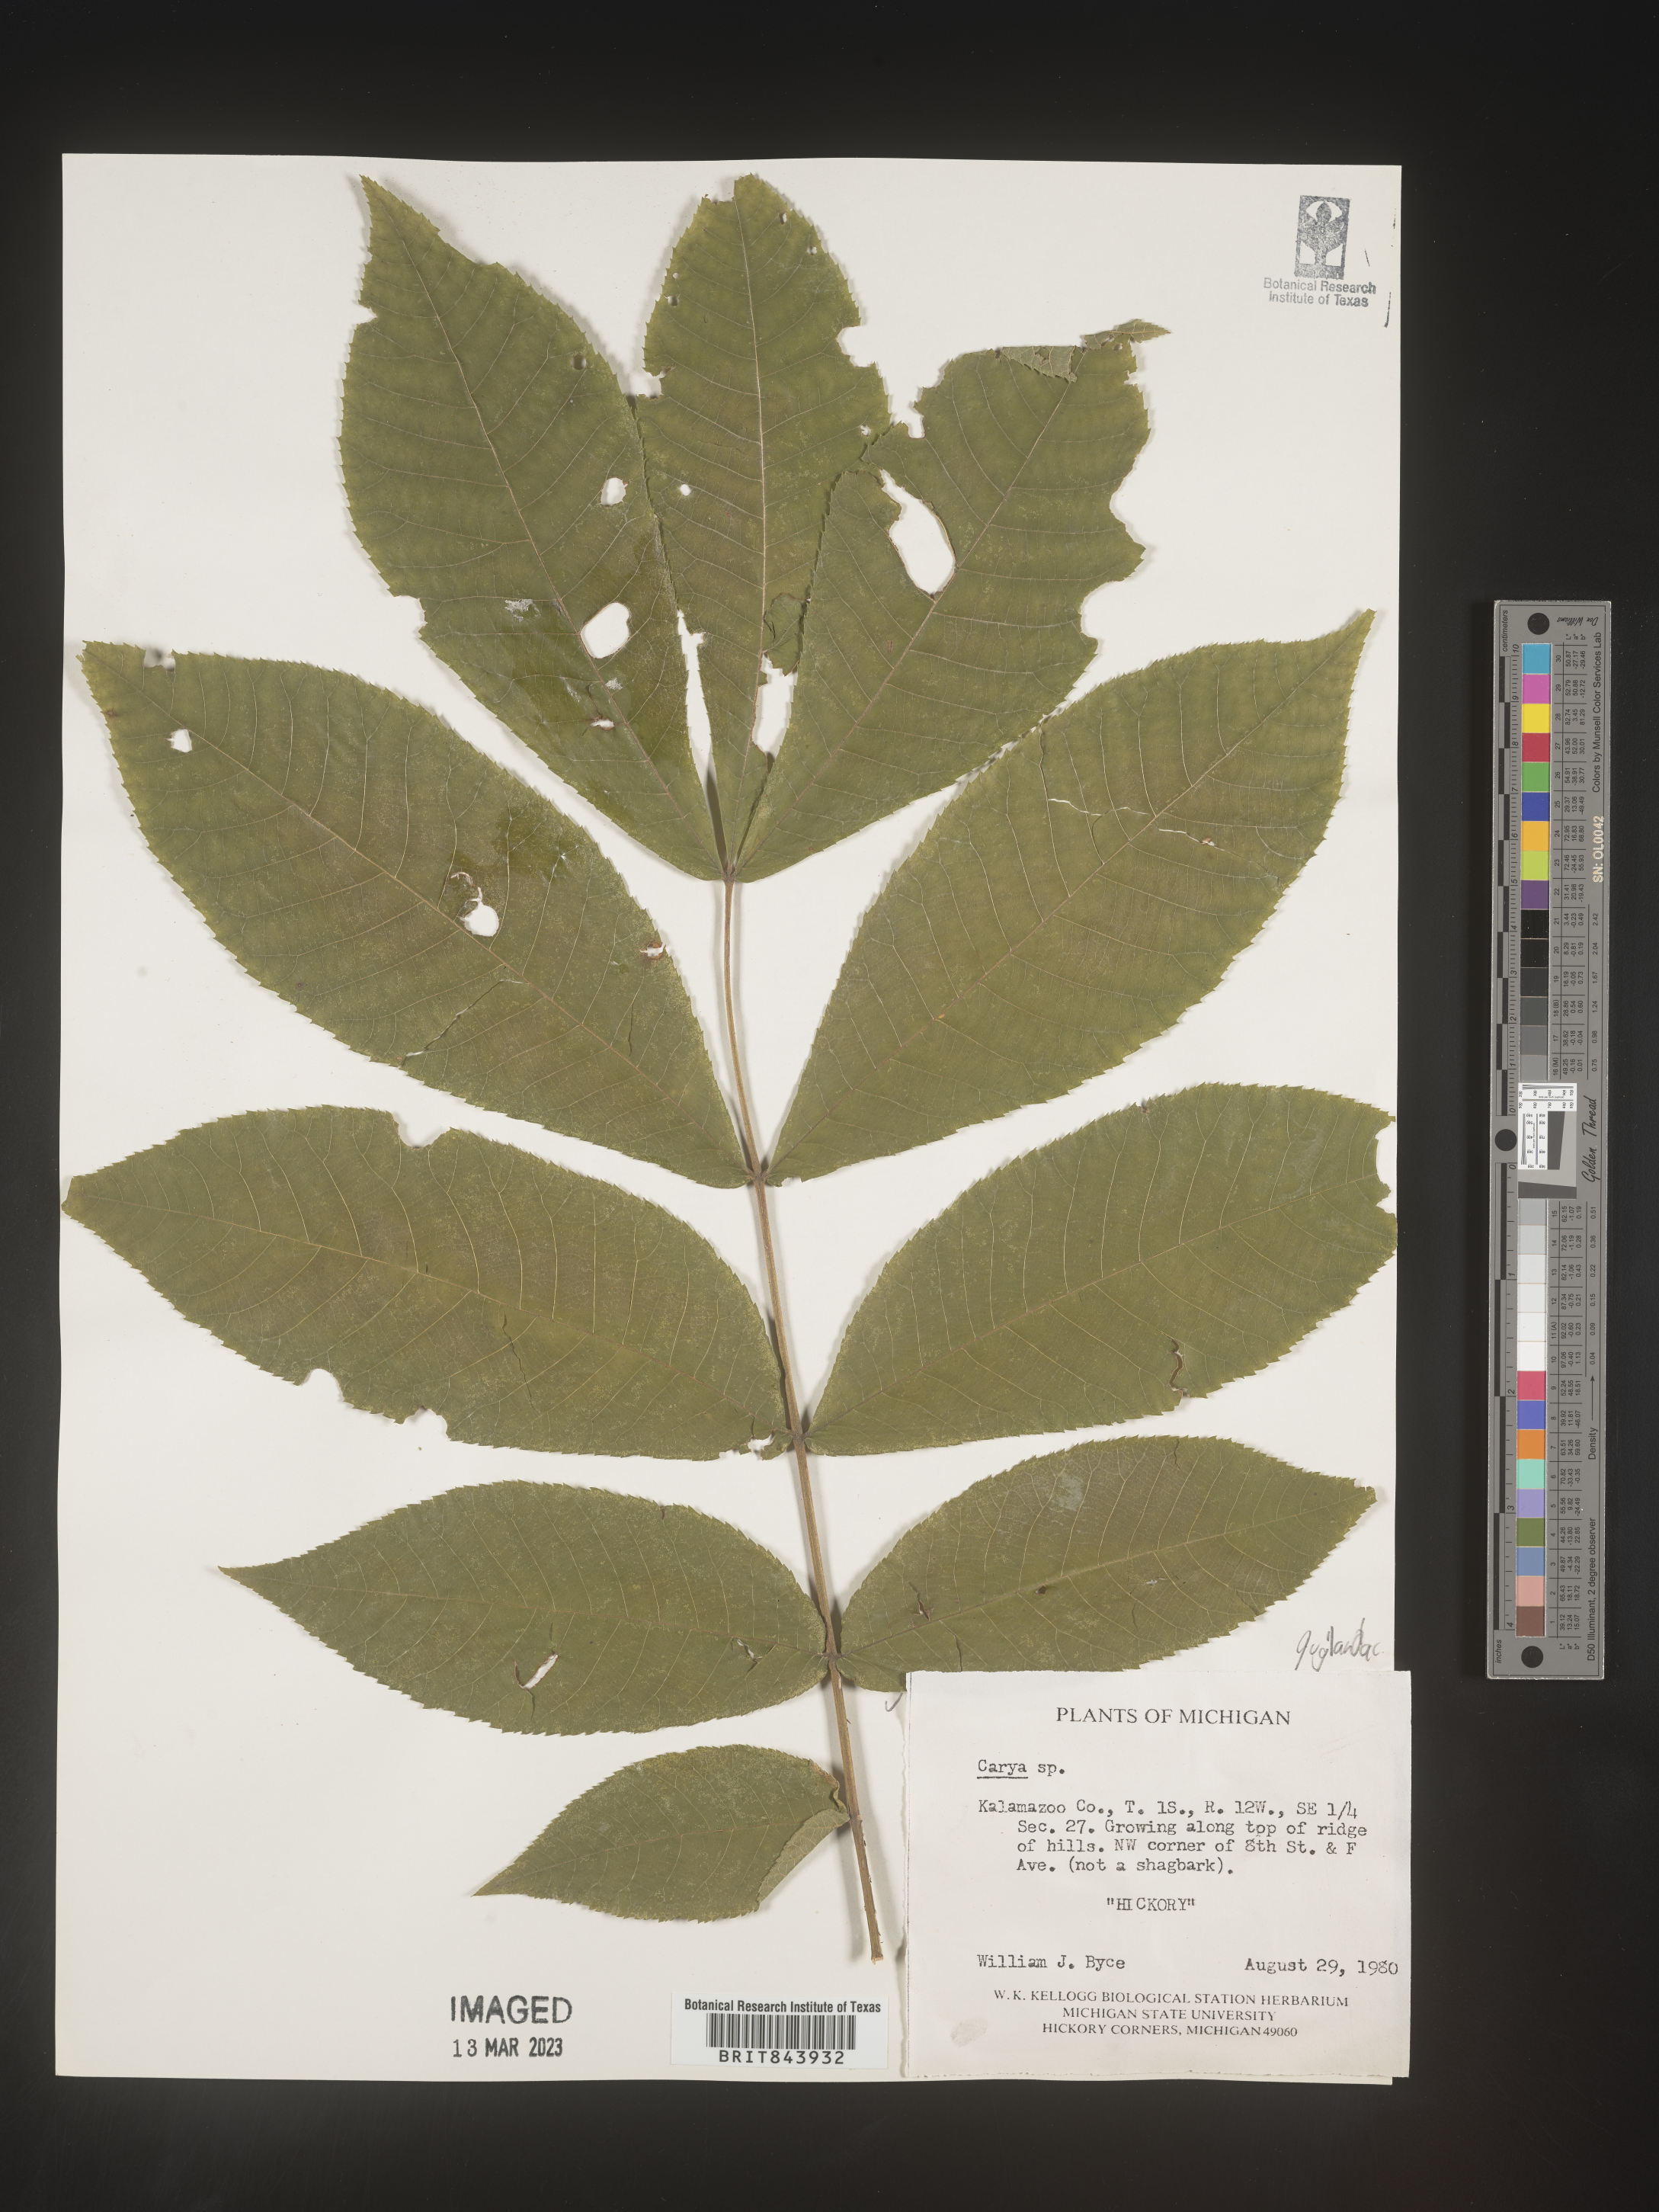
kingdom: Plantae
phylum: Tracheophyta
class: Magnoliopsida
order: Fagales
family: Juglandaceae
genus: Carya
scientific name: Carya
